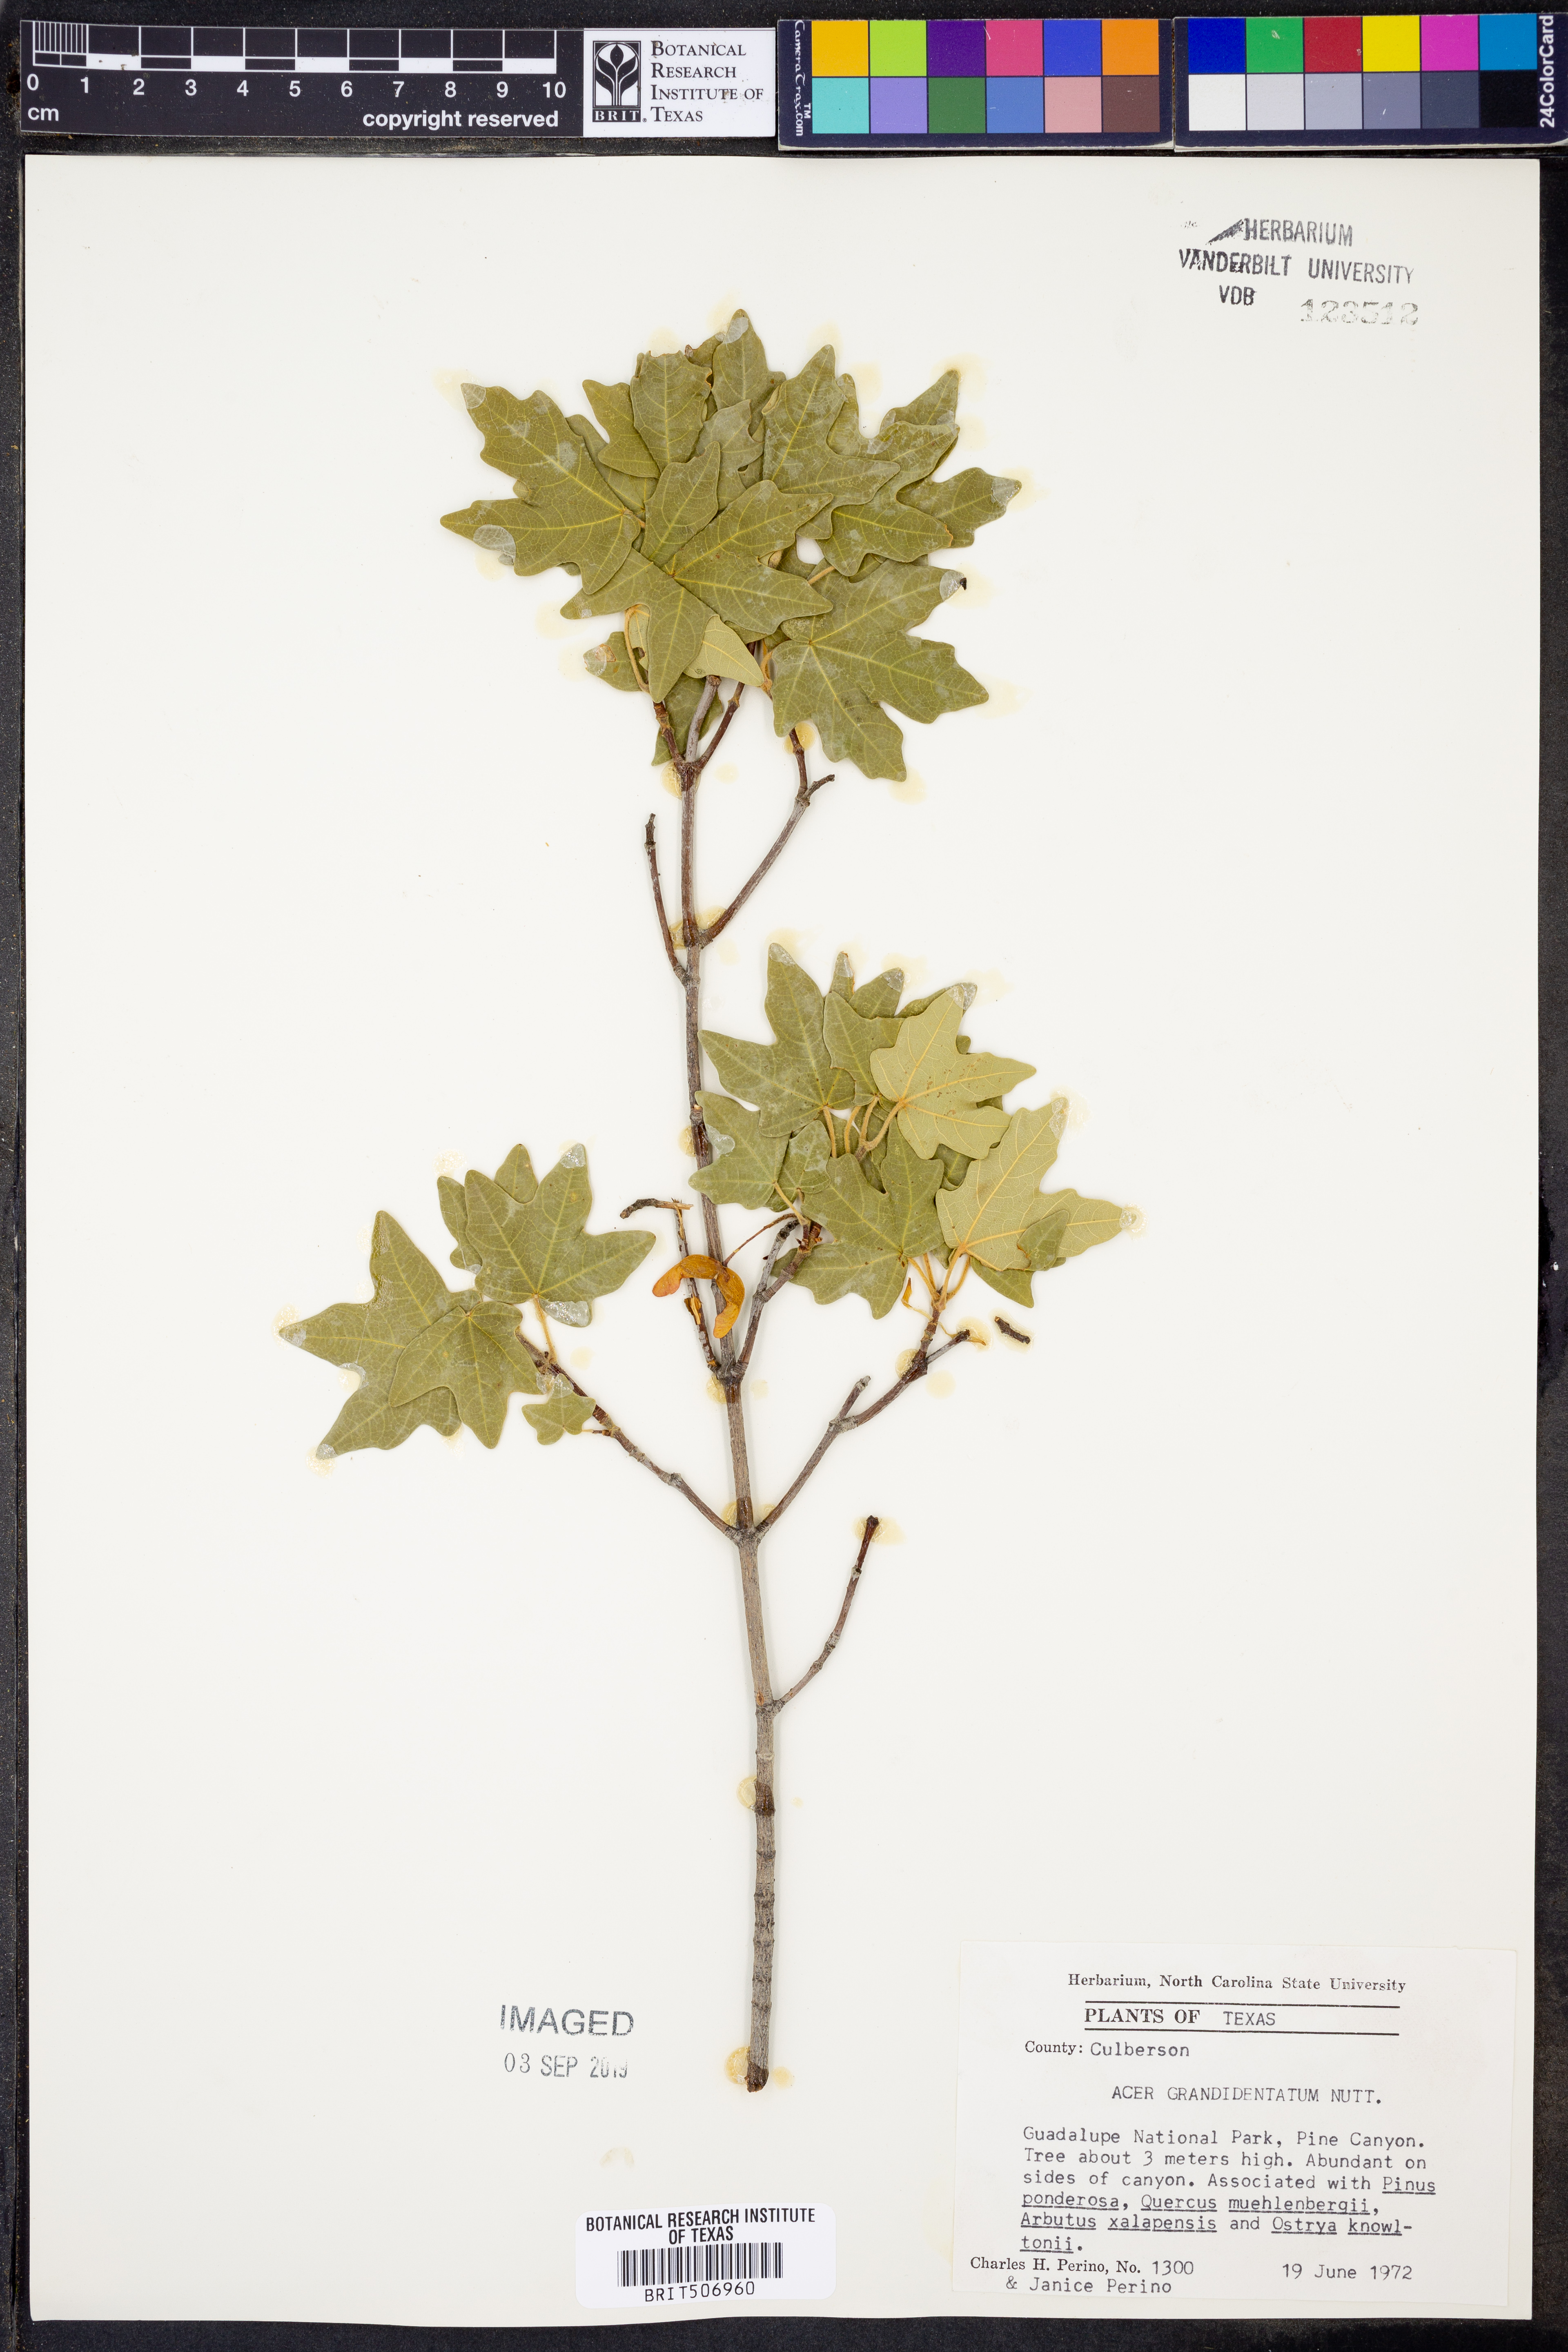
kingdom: Plantae
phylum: Tracheophyta
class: Magnoliopsida
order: Sapindales
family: Sapindaceae
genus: Acer
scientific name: Acer grandidentatum
